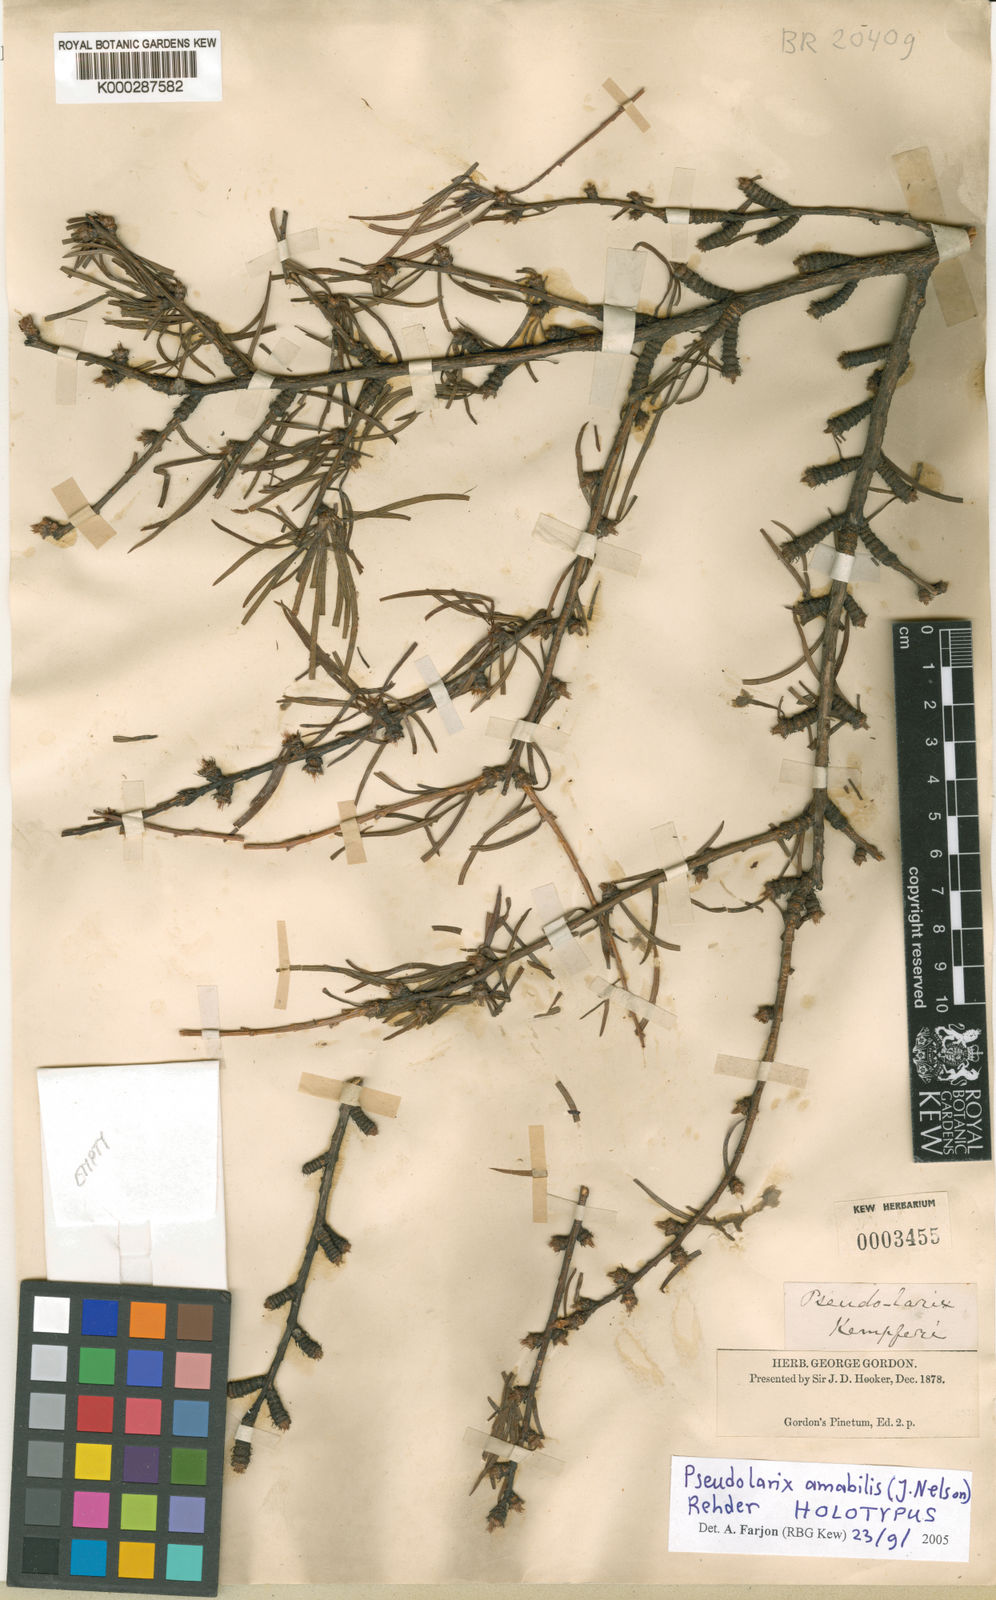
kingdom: Plantae
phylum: Tracheophyta
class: Pinopsida
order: Pinales
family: Pinaceae
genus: Pseudolarix
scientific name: Pseudolarix amabilis
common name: Chinese golden larch
